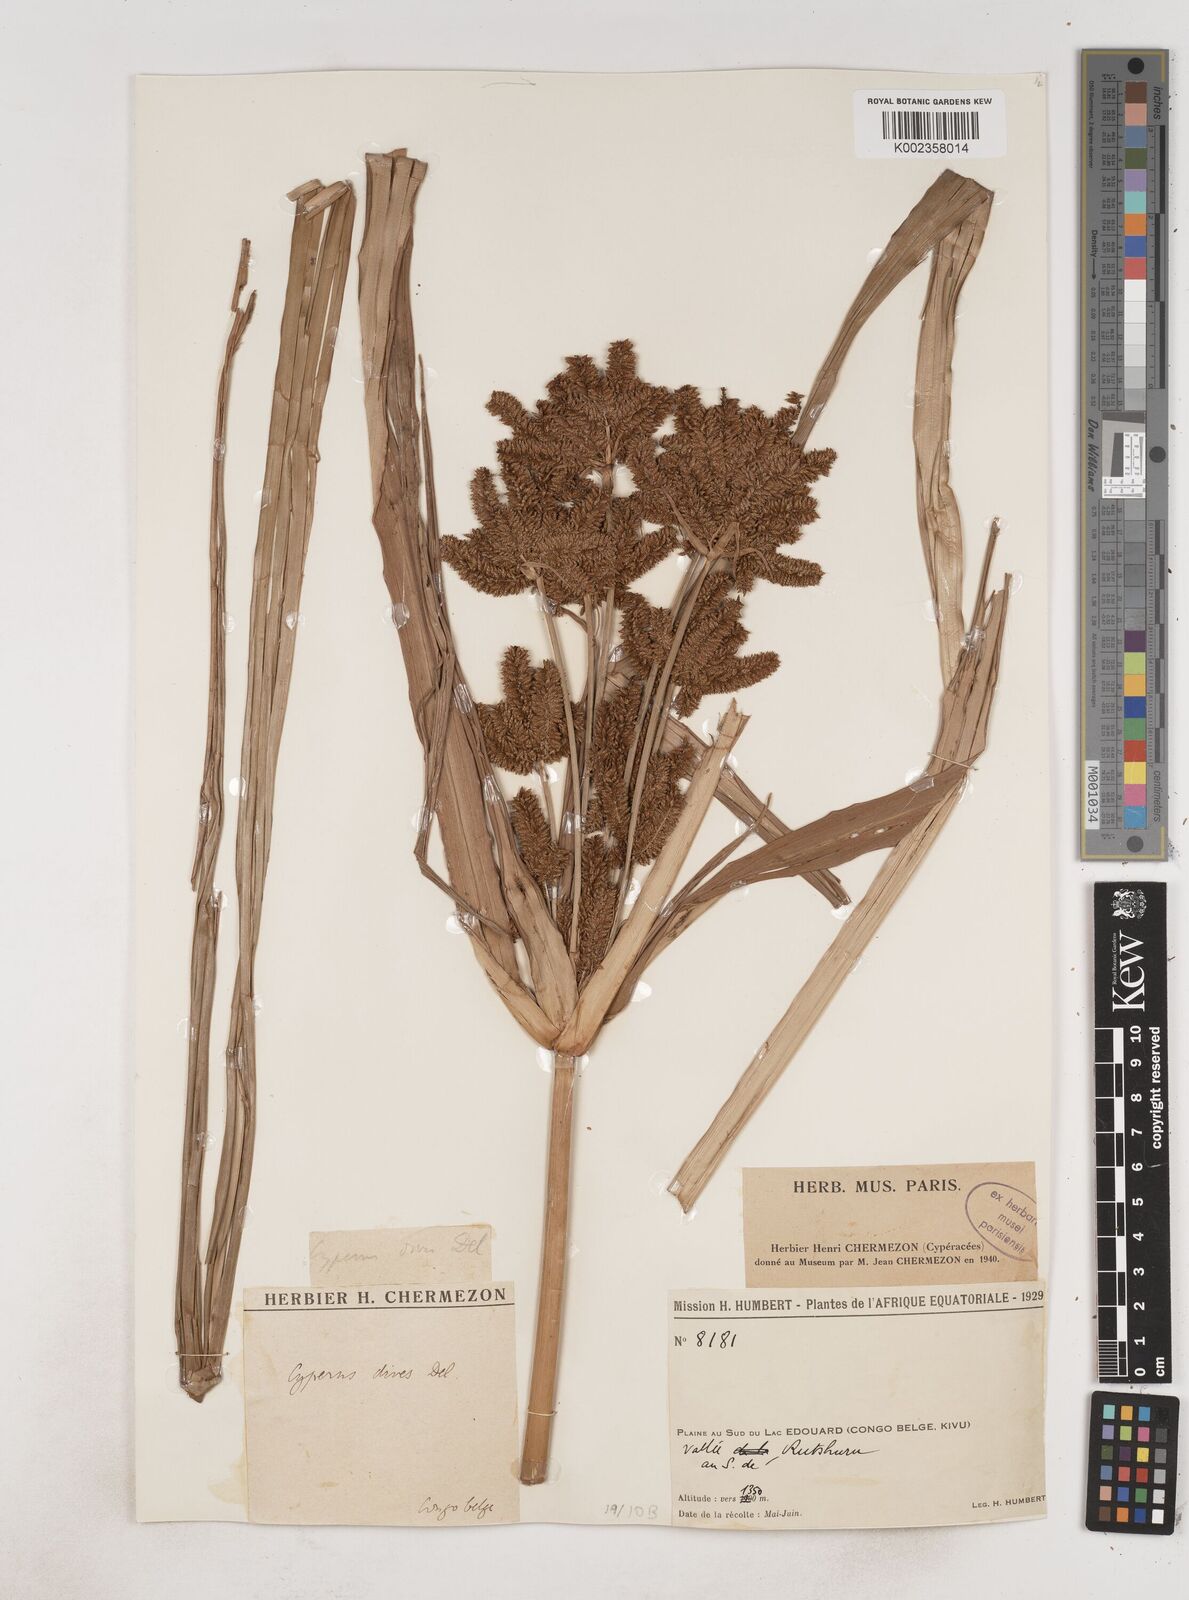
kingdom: Plantae
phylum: Tracheophyta
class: Liliopsida
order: Poales
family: Cyperaceae
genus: Cyperus
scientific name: Cyperus dives
